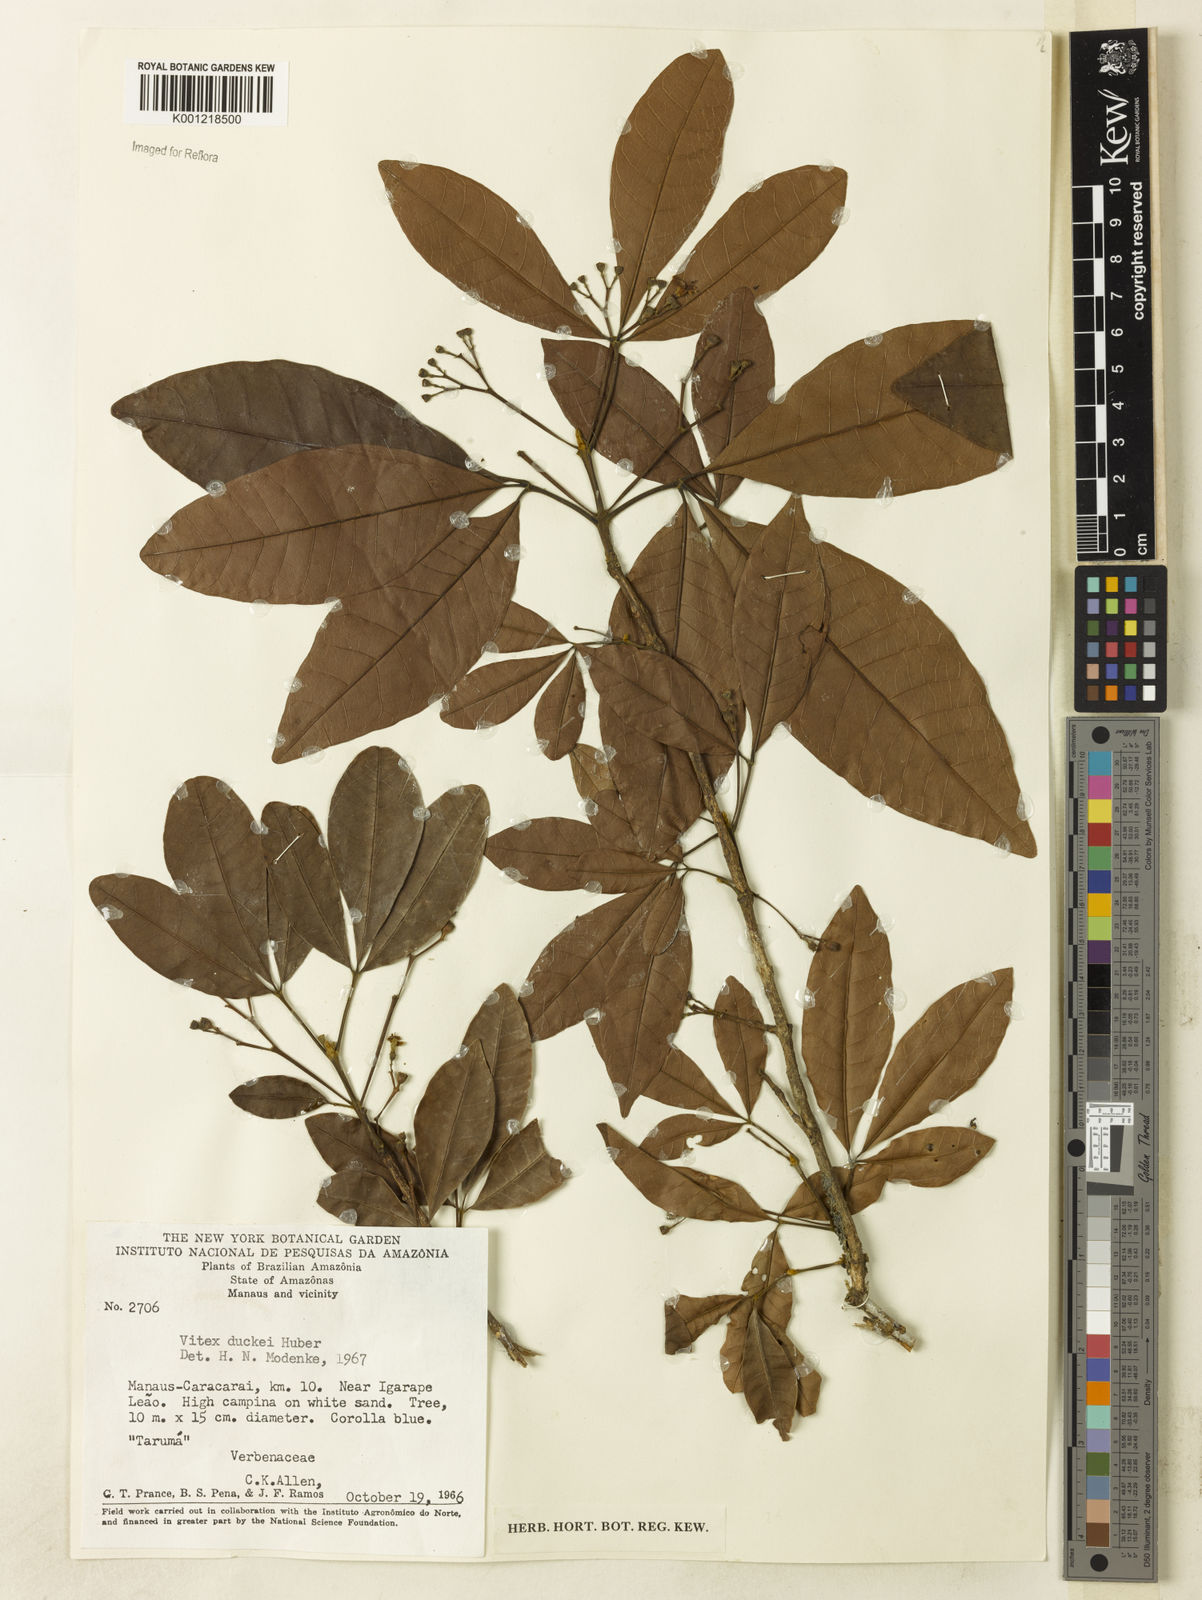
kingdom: Plantae
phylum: Tracheophyta
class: Magnoliopsida
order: Lamiales
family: Lamiaceae
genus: Vitex
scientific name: Vitex duckei
